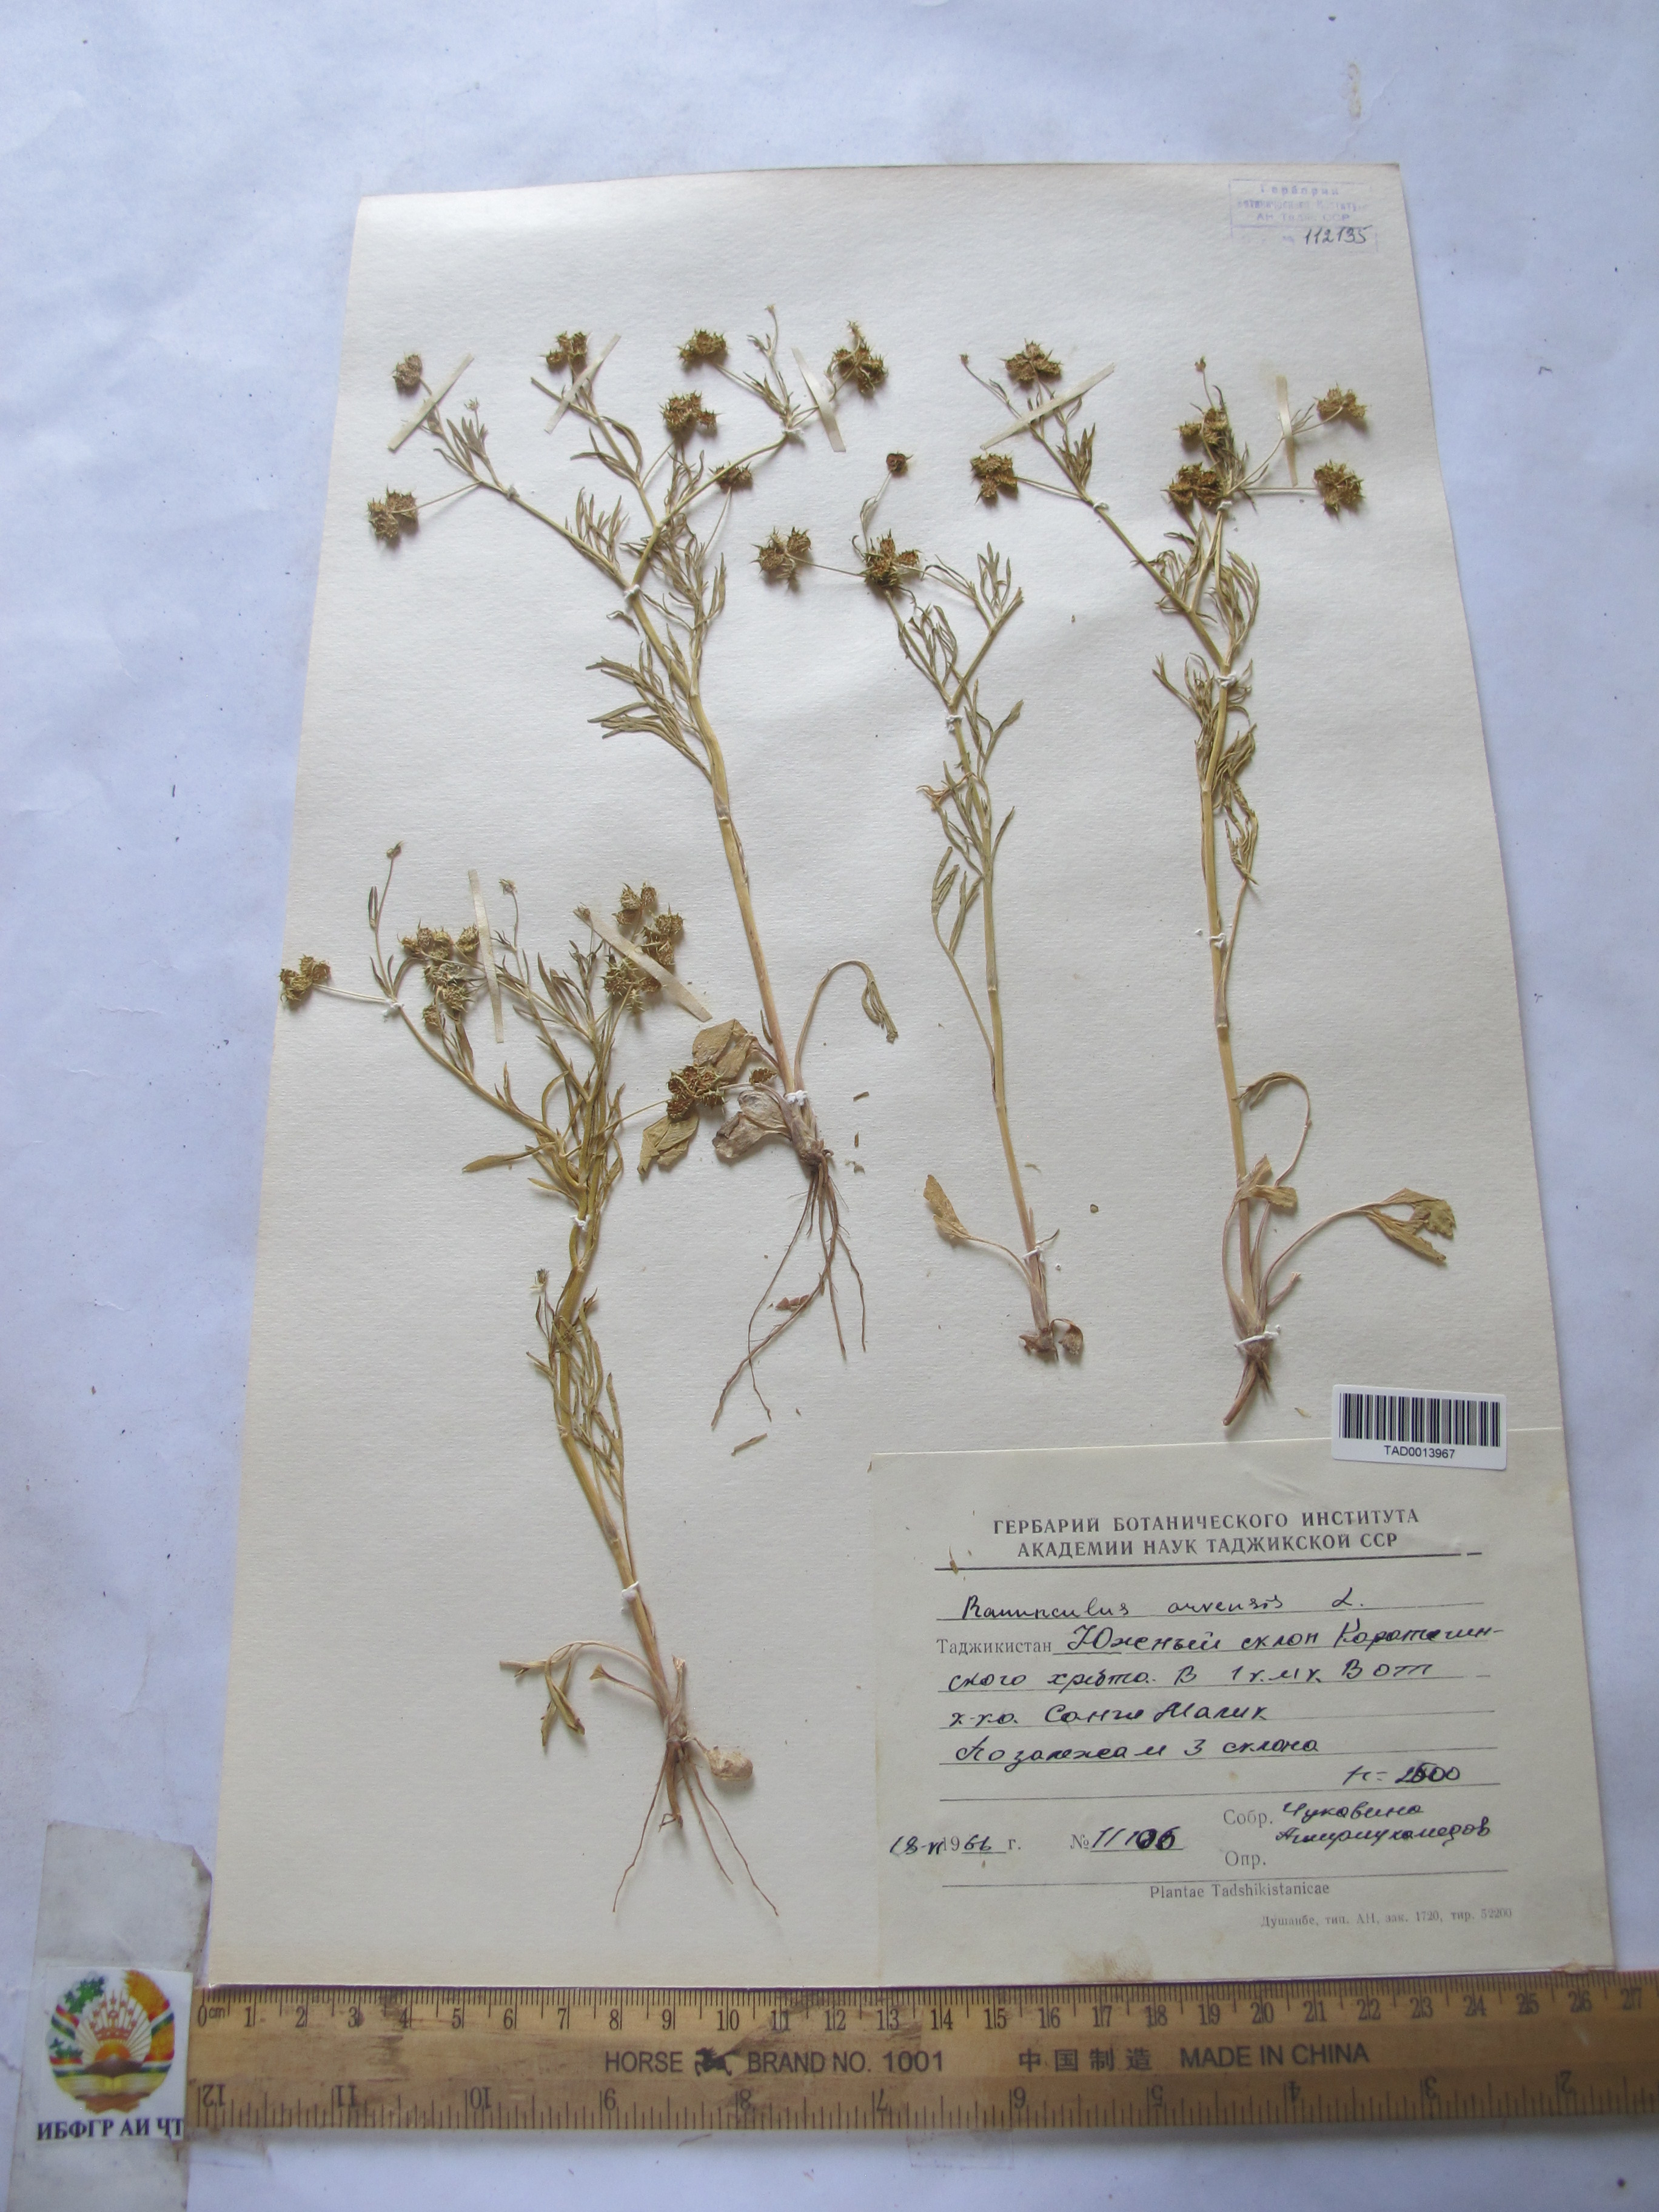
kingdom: Plantae
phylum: Tracheophyta
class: Magnoliopsida
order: Ranunculales
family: Ranunculaceae
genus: Ranunculus
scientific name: Ranunculus arvensis
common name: Corn buttercup
